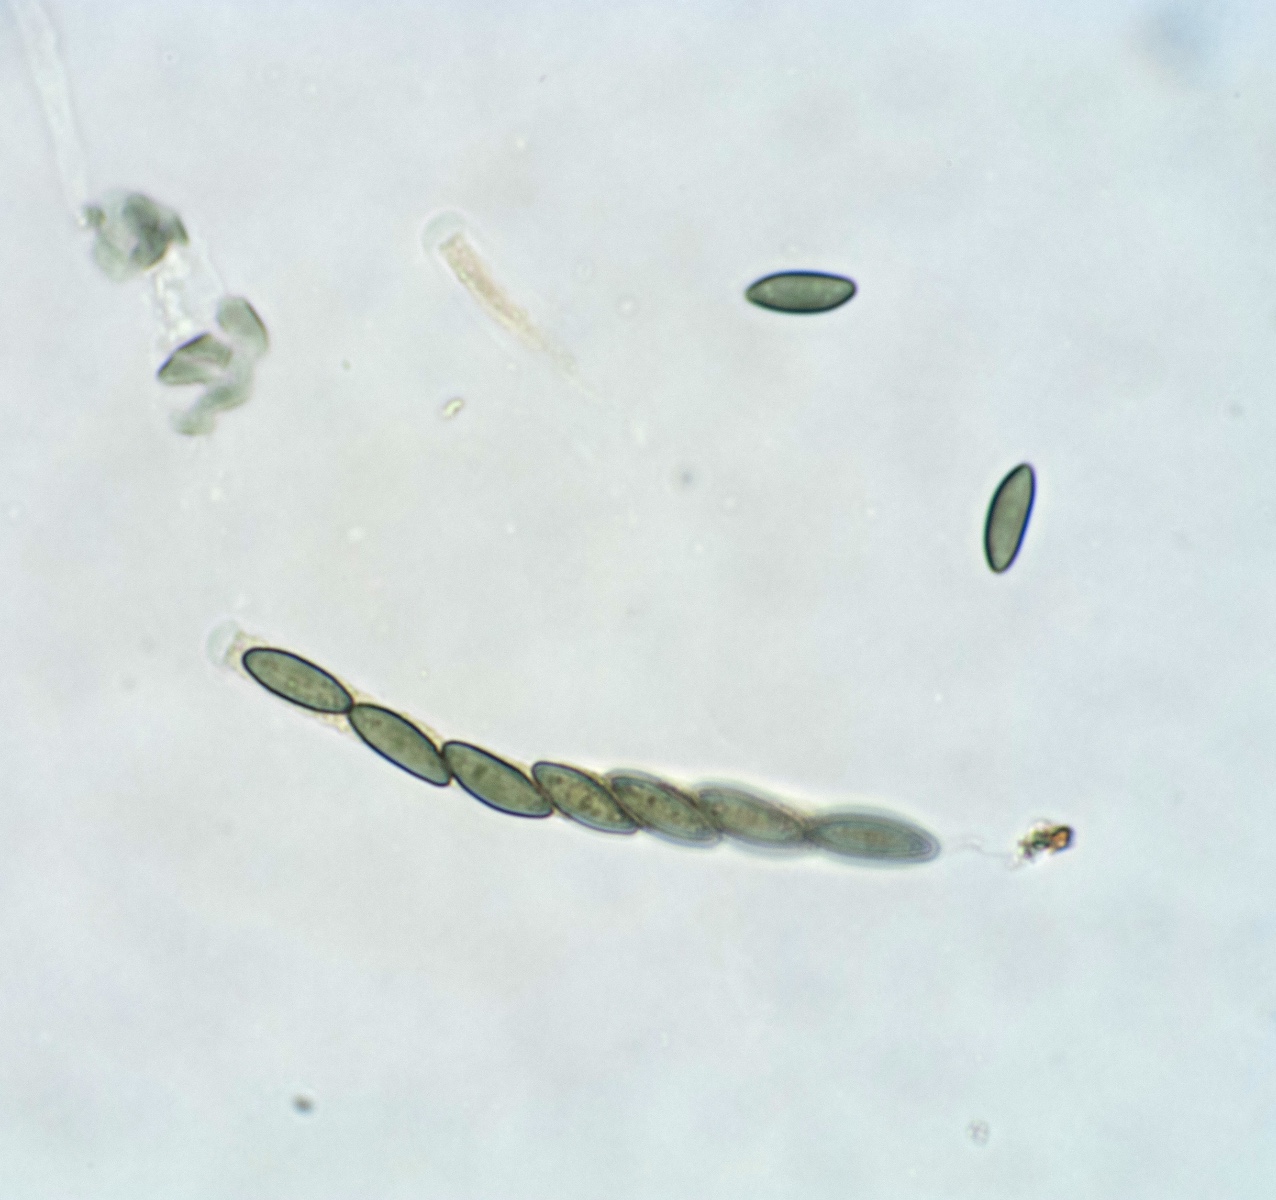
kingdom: Fungi
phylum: Ascomycota
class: Sordariomycetes
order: Xylariales
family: Barrmaeliaceae
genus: Barrmaelia
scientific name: Barrmaelia pseudobombarda
